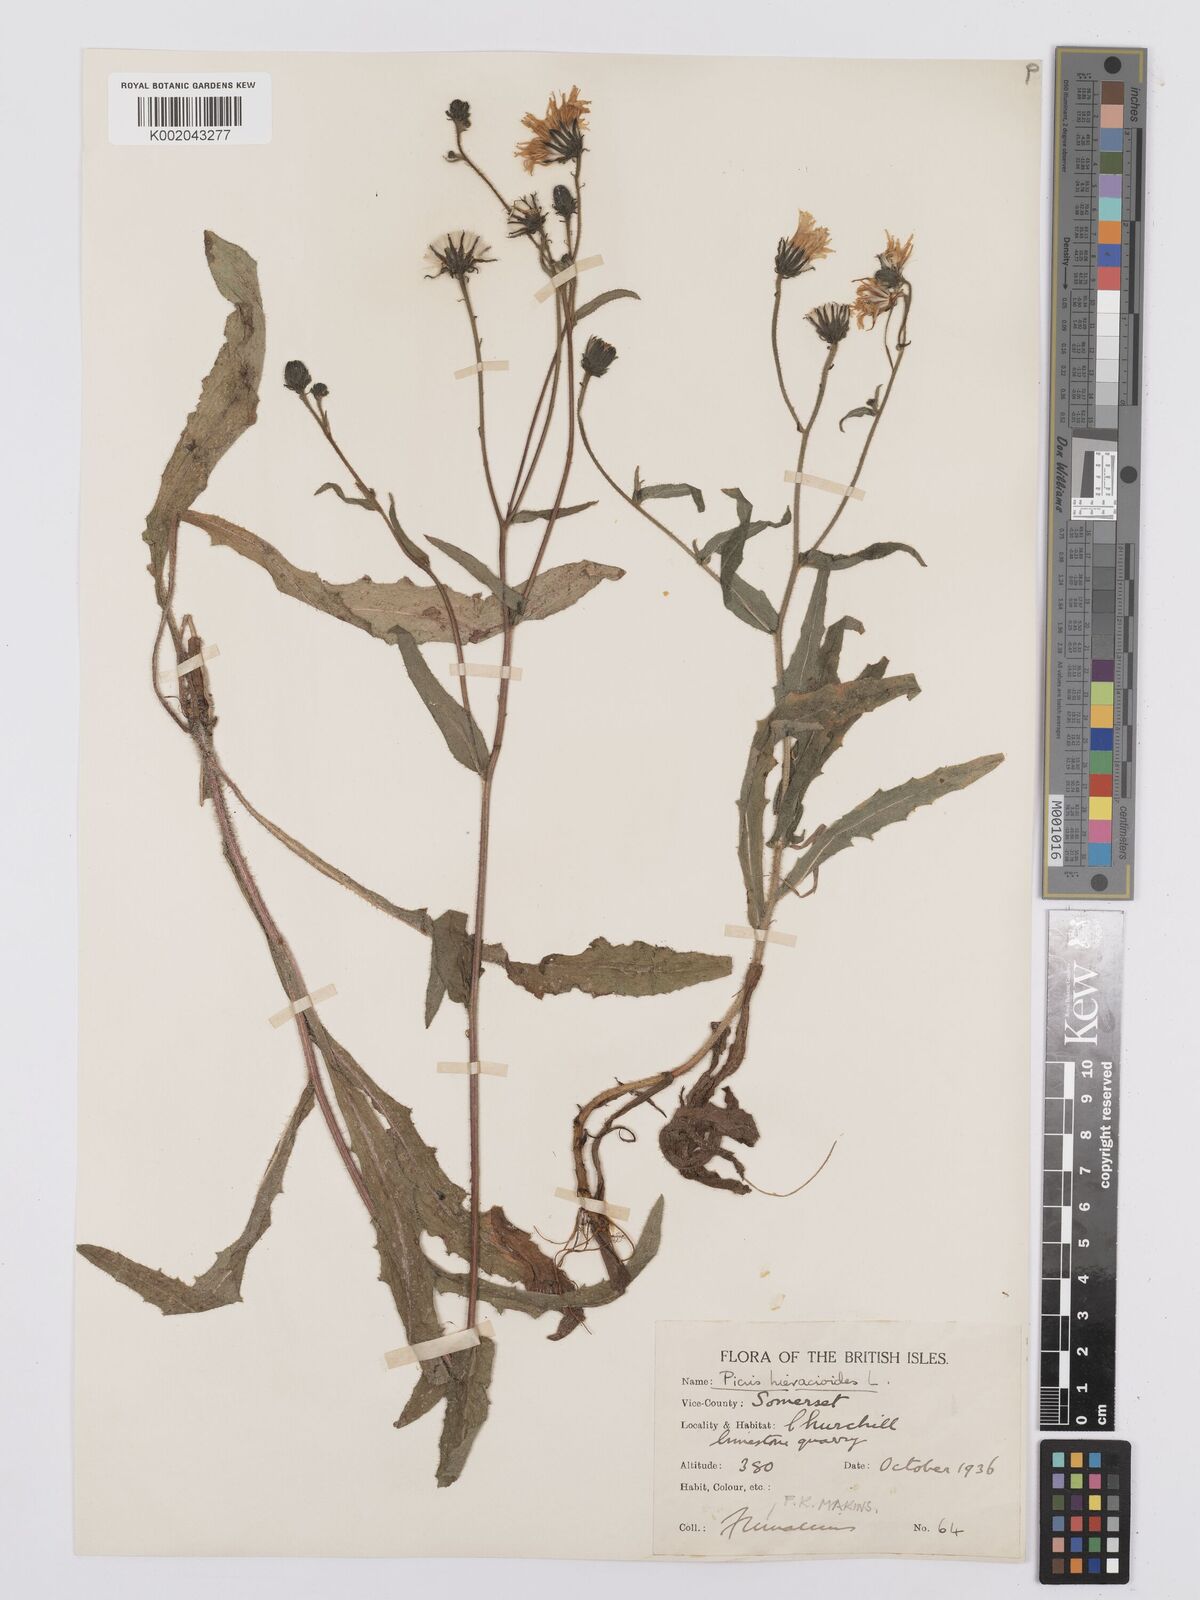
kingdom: Plantae
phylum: Tracheophyta
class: Magnoliopsida
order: Asterales
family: Asteraceae
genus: Picris
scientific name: Picris hieracioides
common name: Hawkweed oxtongue
